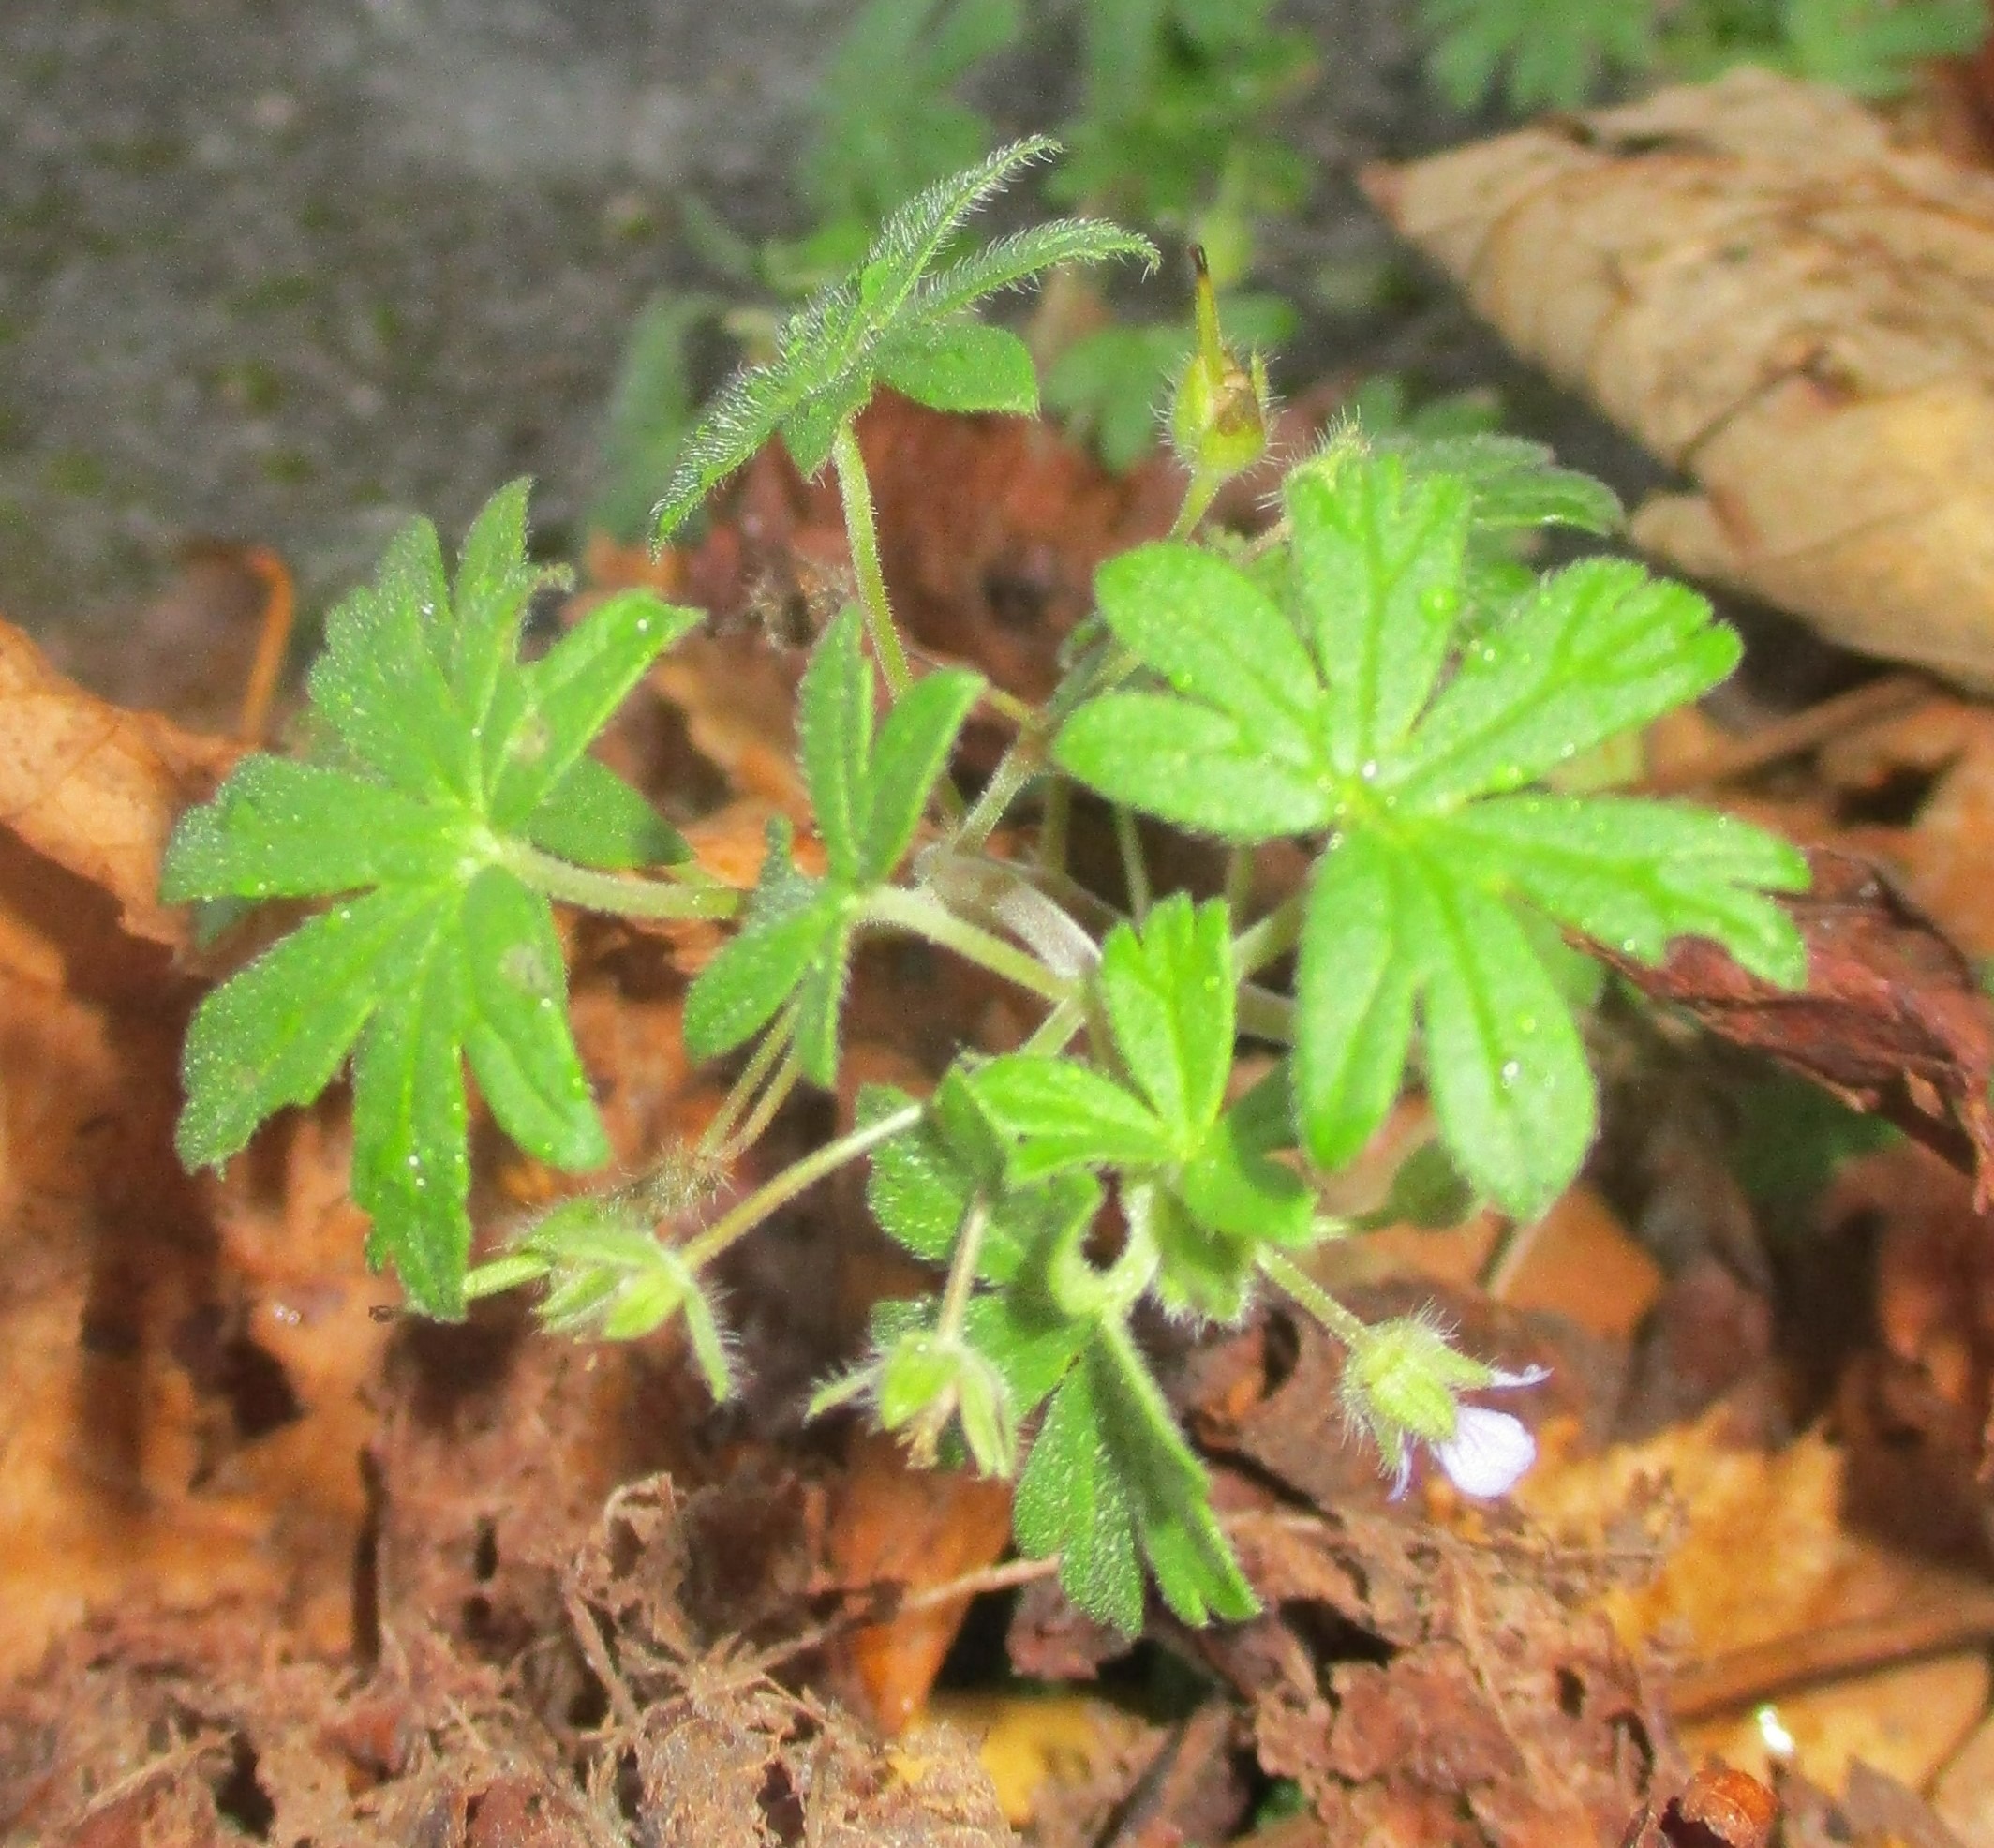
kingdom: Plantae
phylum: Tracheophyta
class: Magnoliopsida
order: Geraniales
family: Geraniaceae
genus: Geranium
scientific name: Geranium rotundifolium
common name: Rundbladet storkenæb
